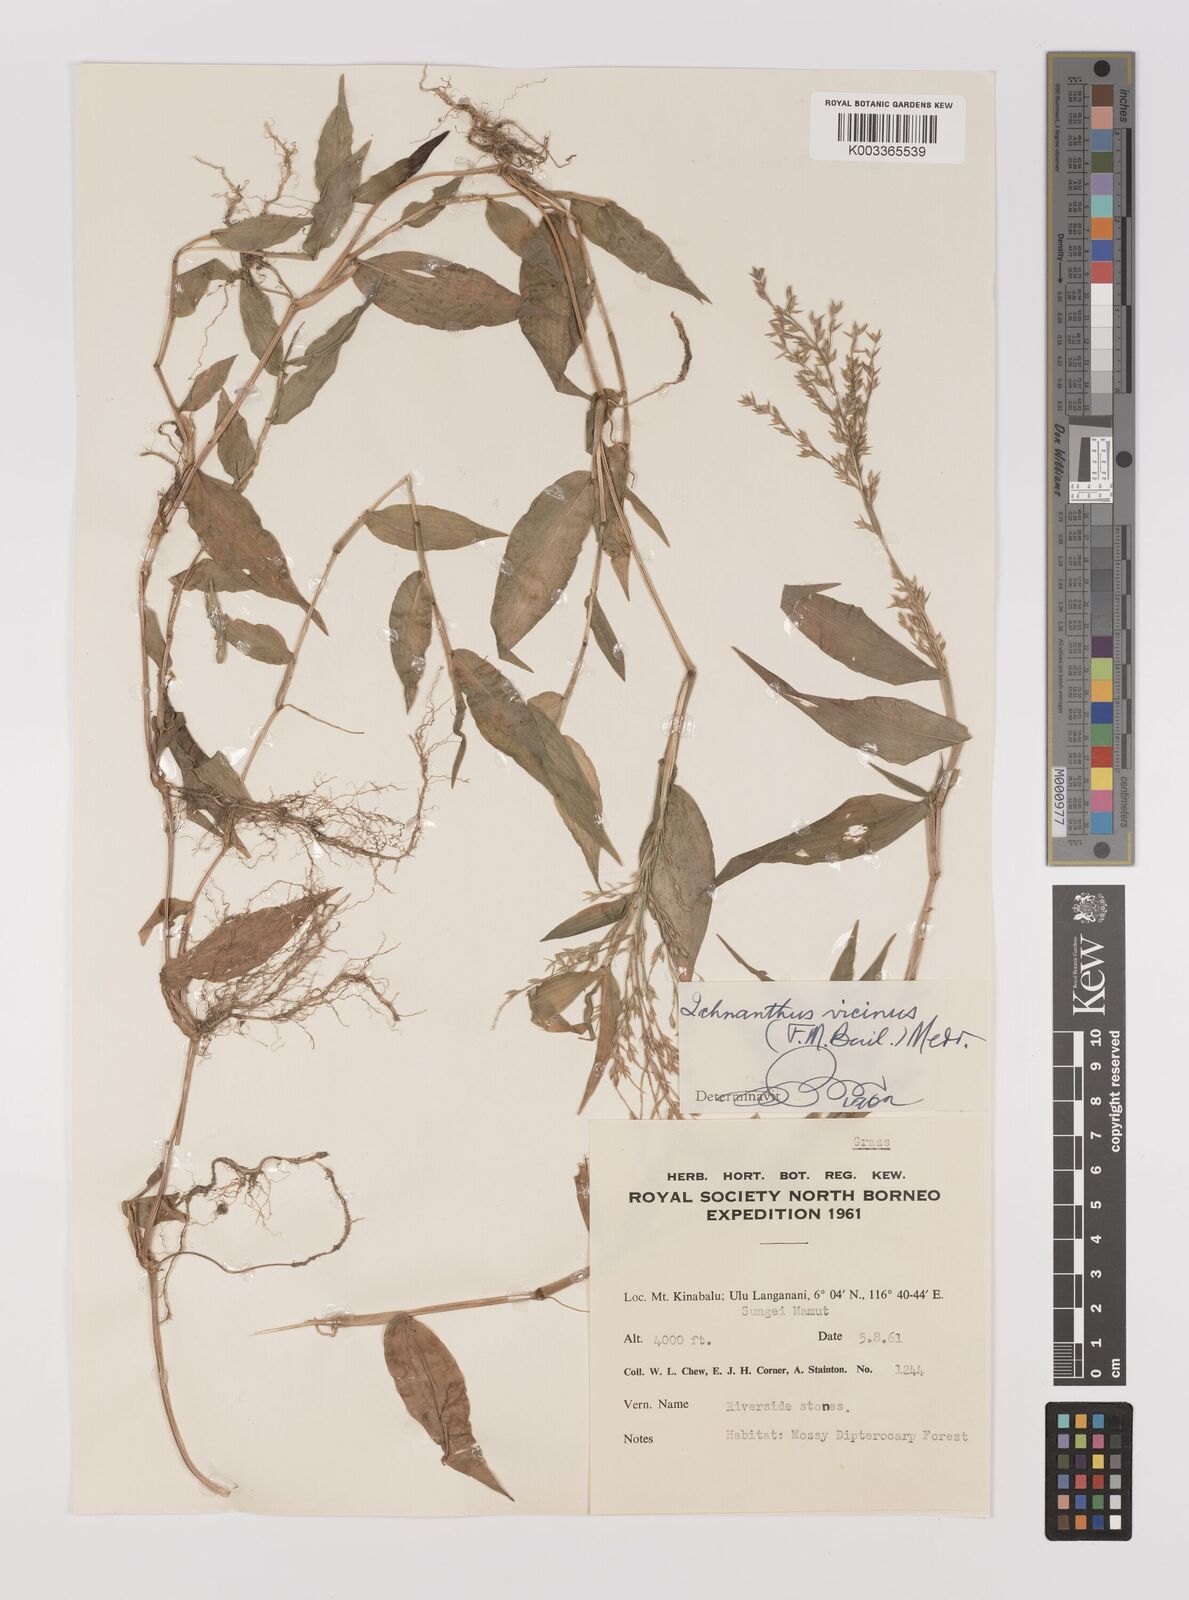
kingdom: Plantae
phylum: Tracheophyta
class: Liliopsida
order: Poales
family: Poaceae
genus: Ichnanthus
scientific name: Ichnanthus pallens
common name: Water grass
